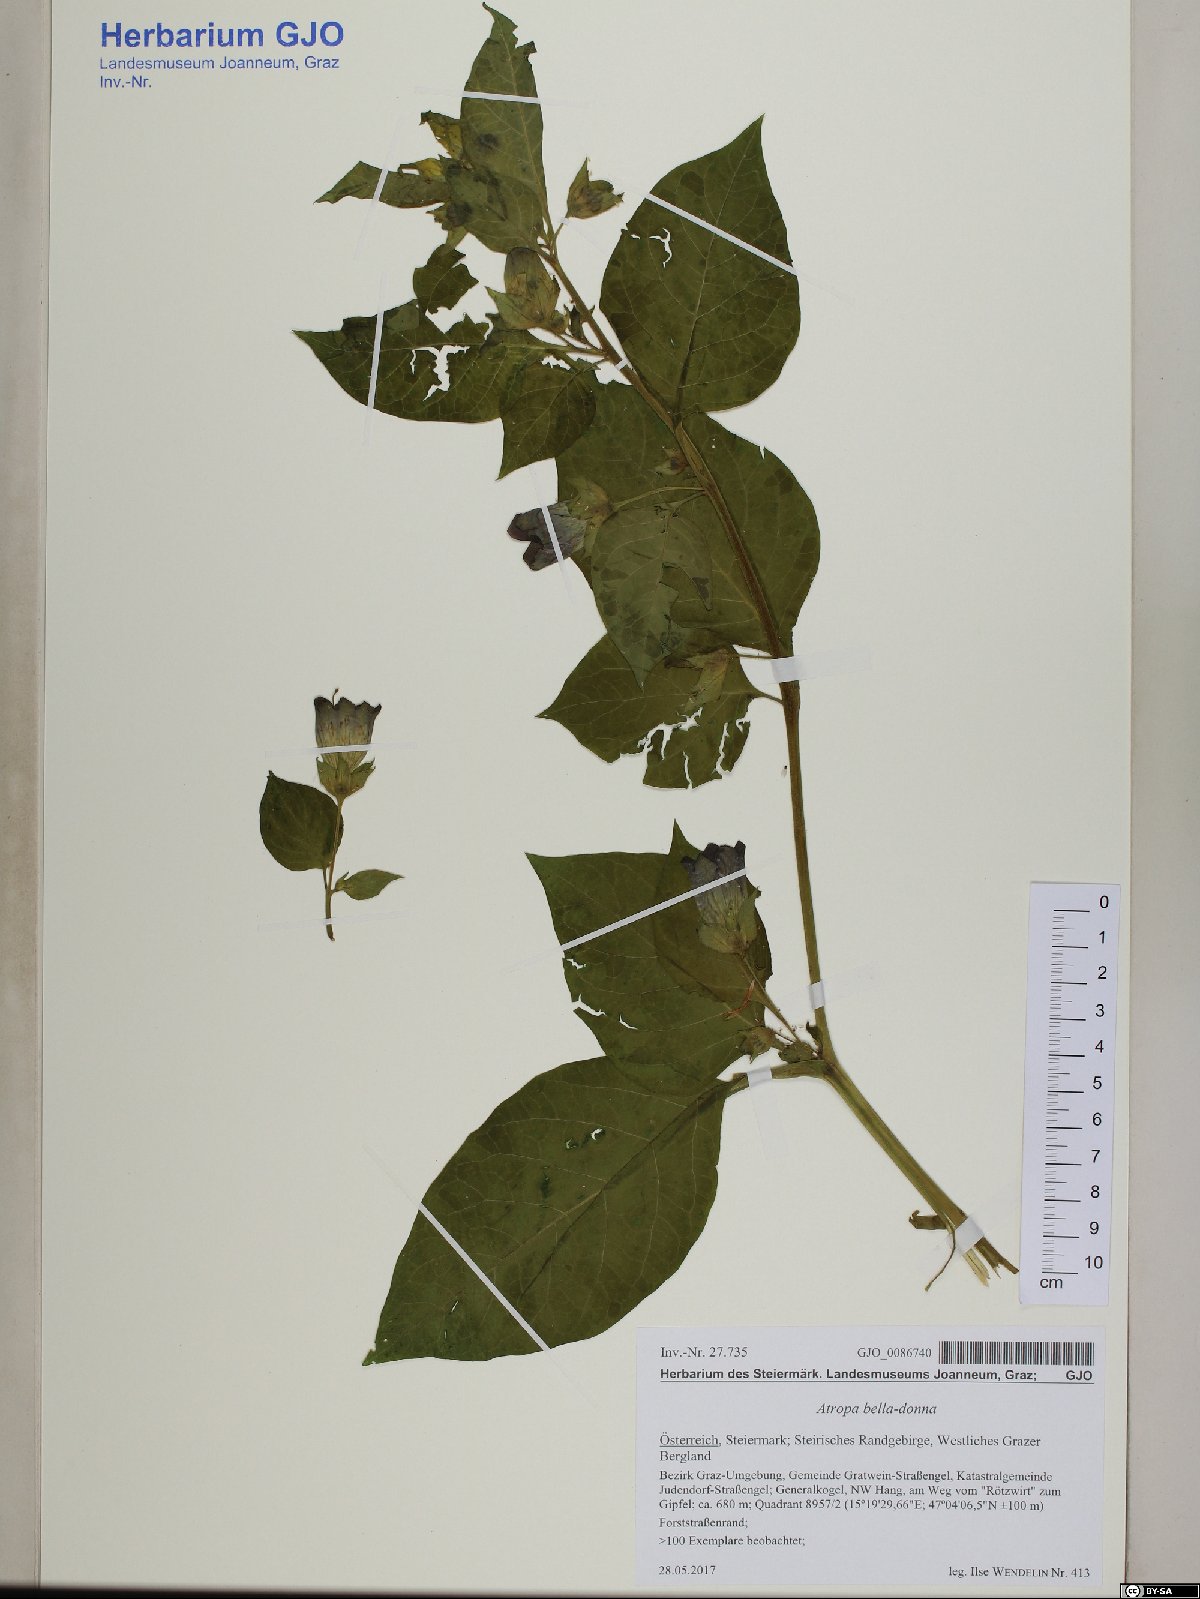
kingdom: Plantae
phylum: Tracheophyta
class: Magnoliopsida
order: Solanales
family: Solanaceae
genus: Atropa
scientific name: Atropa belladonna
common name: Deadly nightshade
